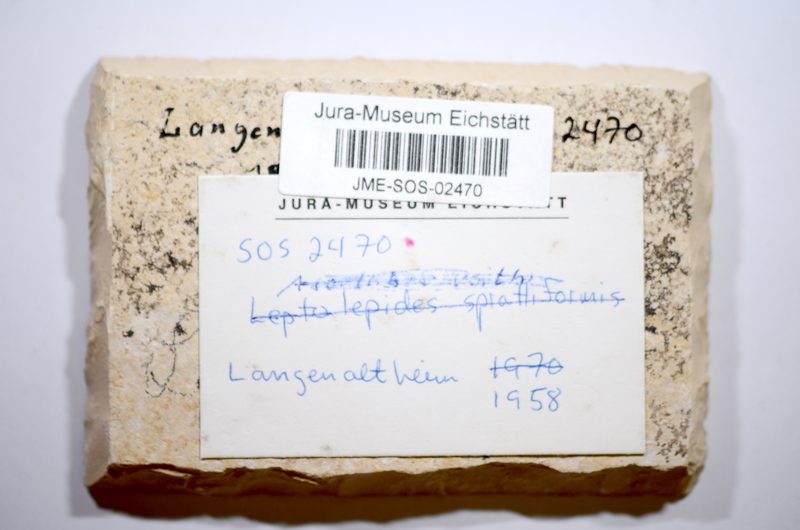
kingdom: Animalia
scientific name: Animalia
